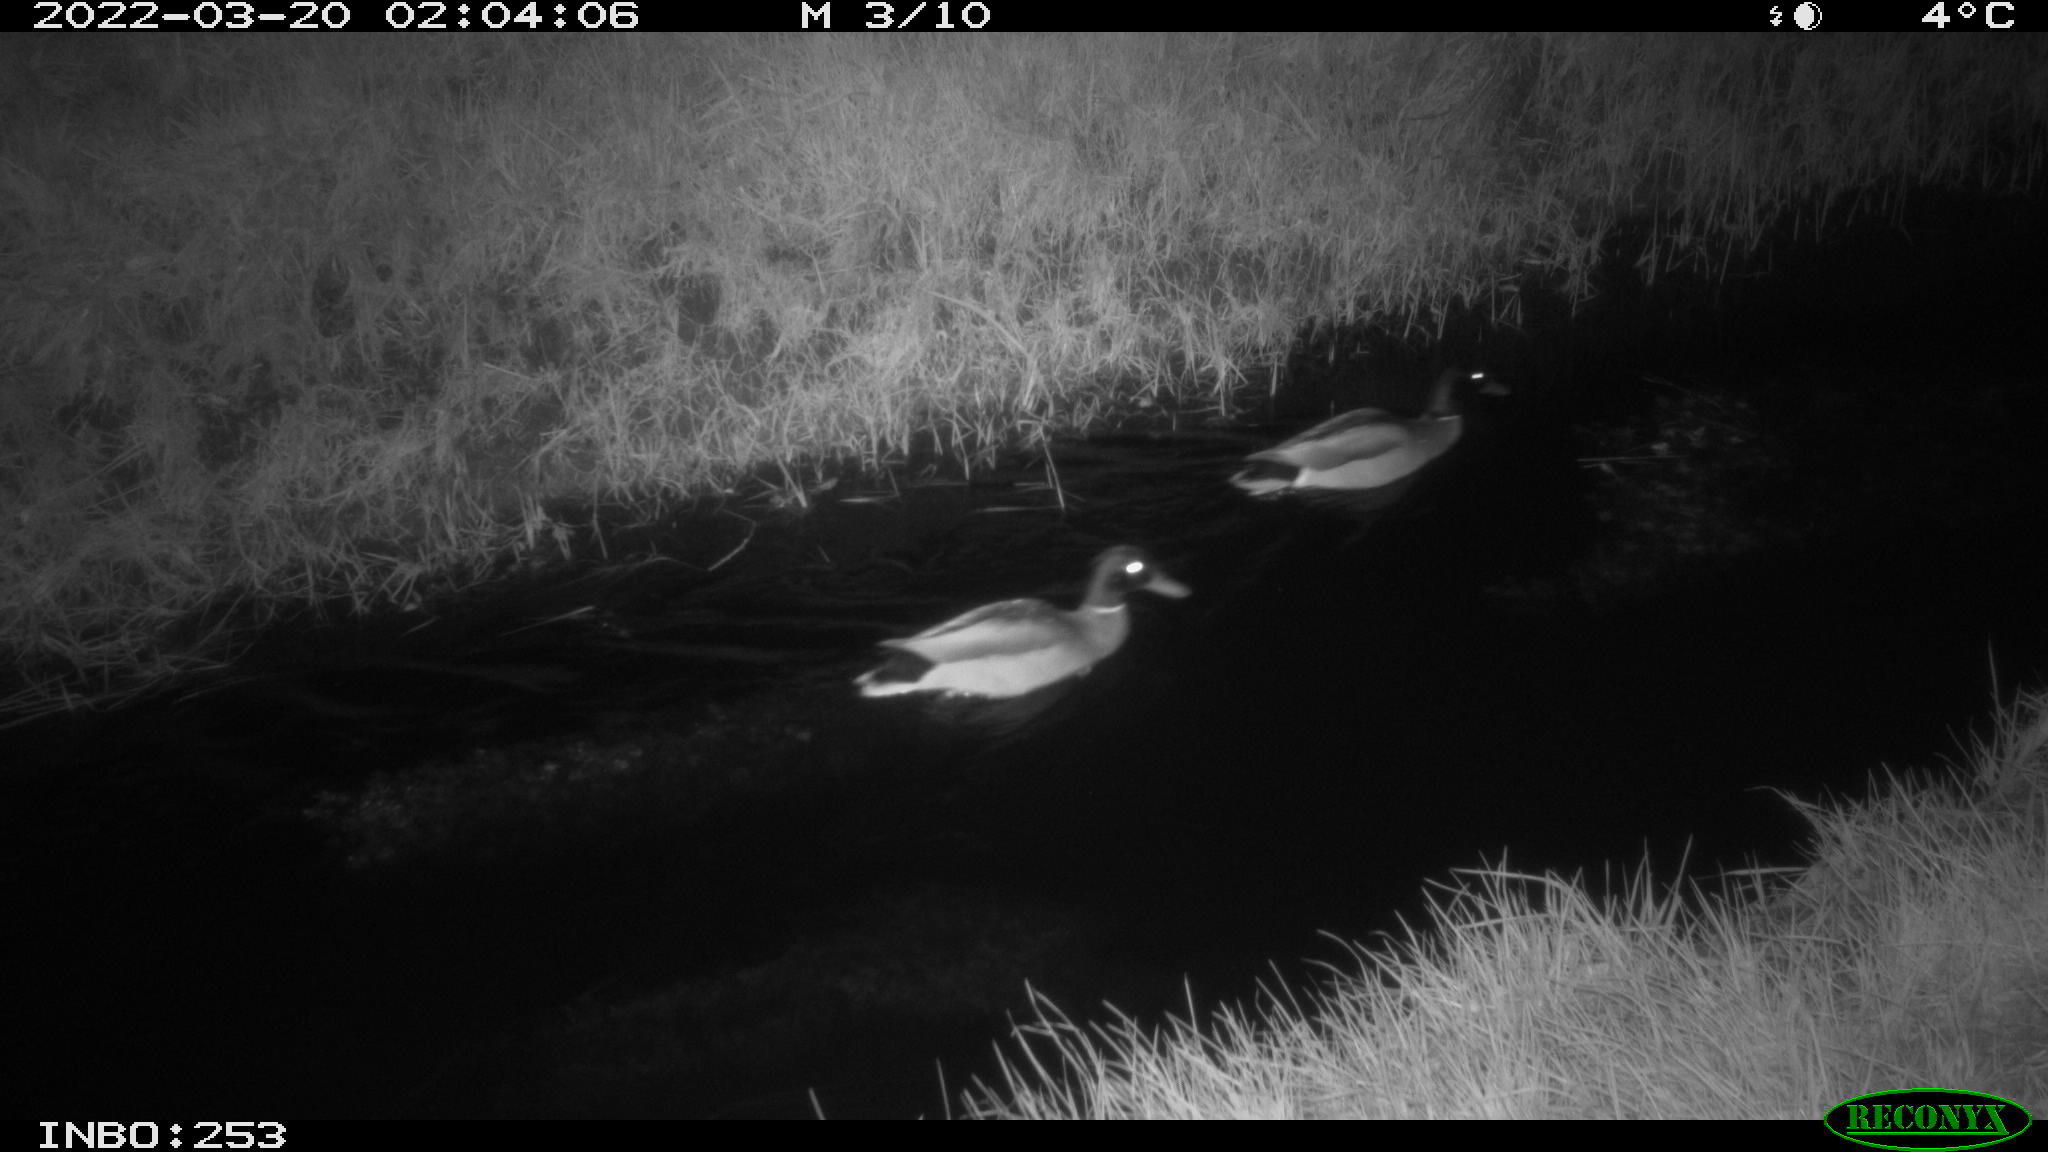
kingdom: Animalia
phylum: Chordata
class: Aves
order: Anseriformes
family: Anatidae
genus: Anas
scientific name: Anas platyrhynchos
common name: Mallard
